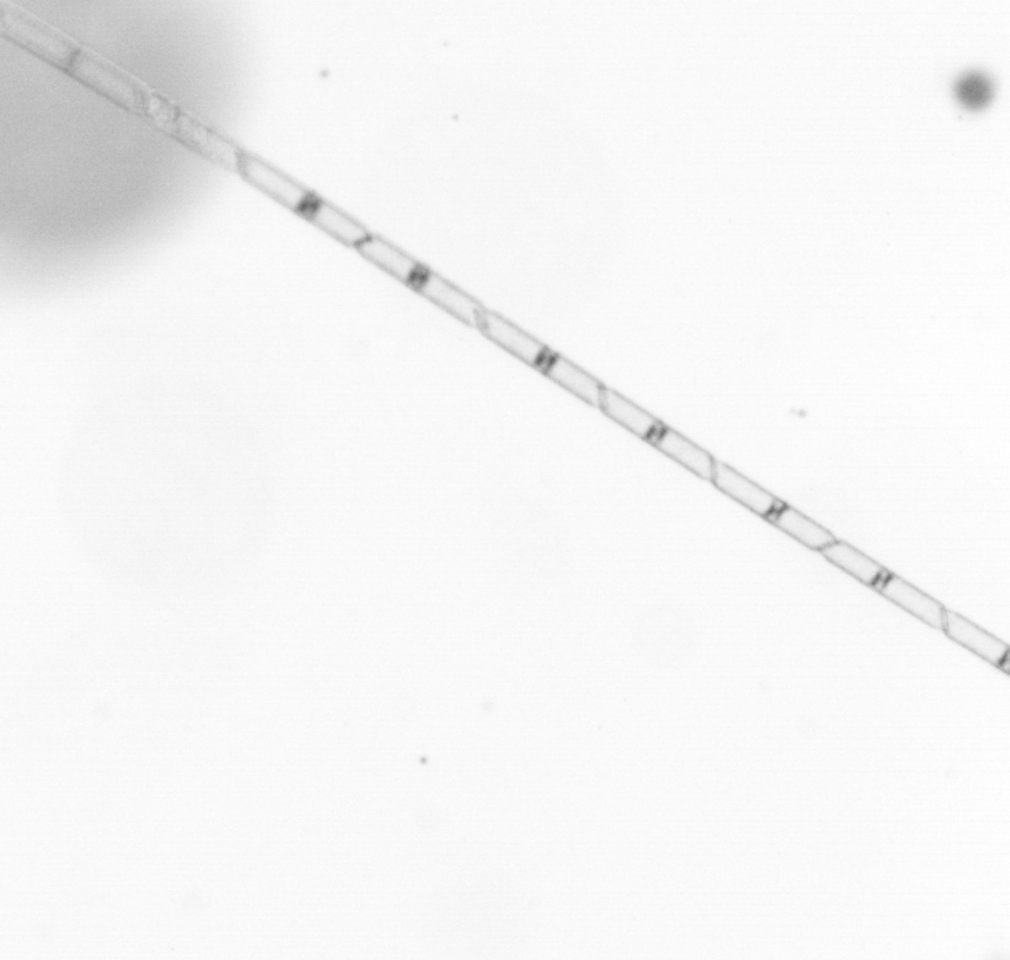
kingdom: Chromista
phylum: Ochrophyta
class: Bacillariophyceae
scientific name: Bacillariophyceae
